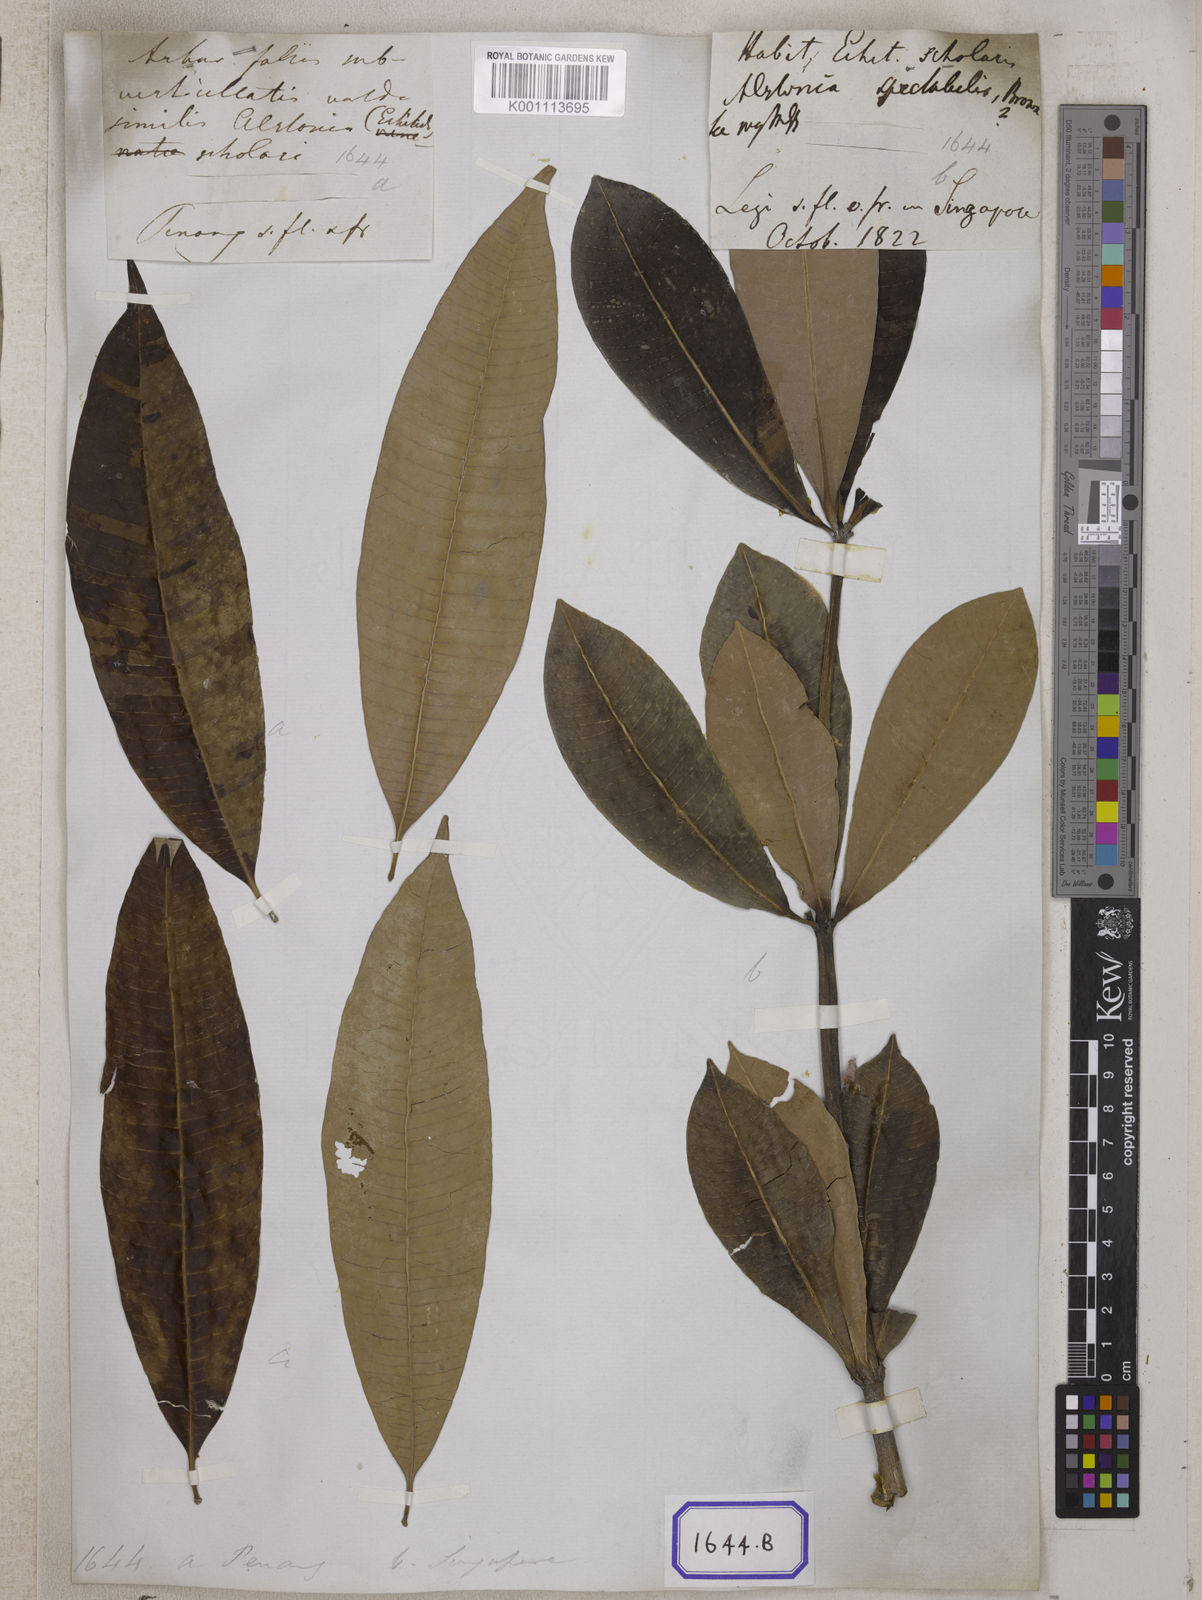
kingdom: Plantae
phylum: Tracheophyta
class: Magnoliopsida
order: Gentianales
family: Apocynaceae
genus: Alstonia
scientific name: Alstonia scholaris
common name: White cheesewood
